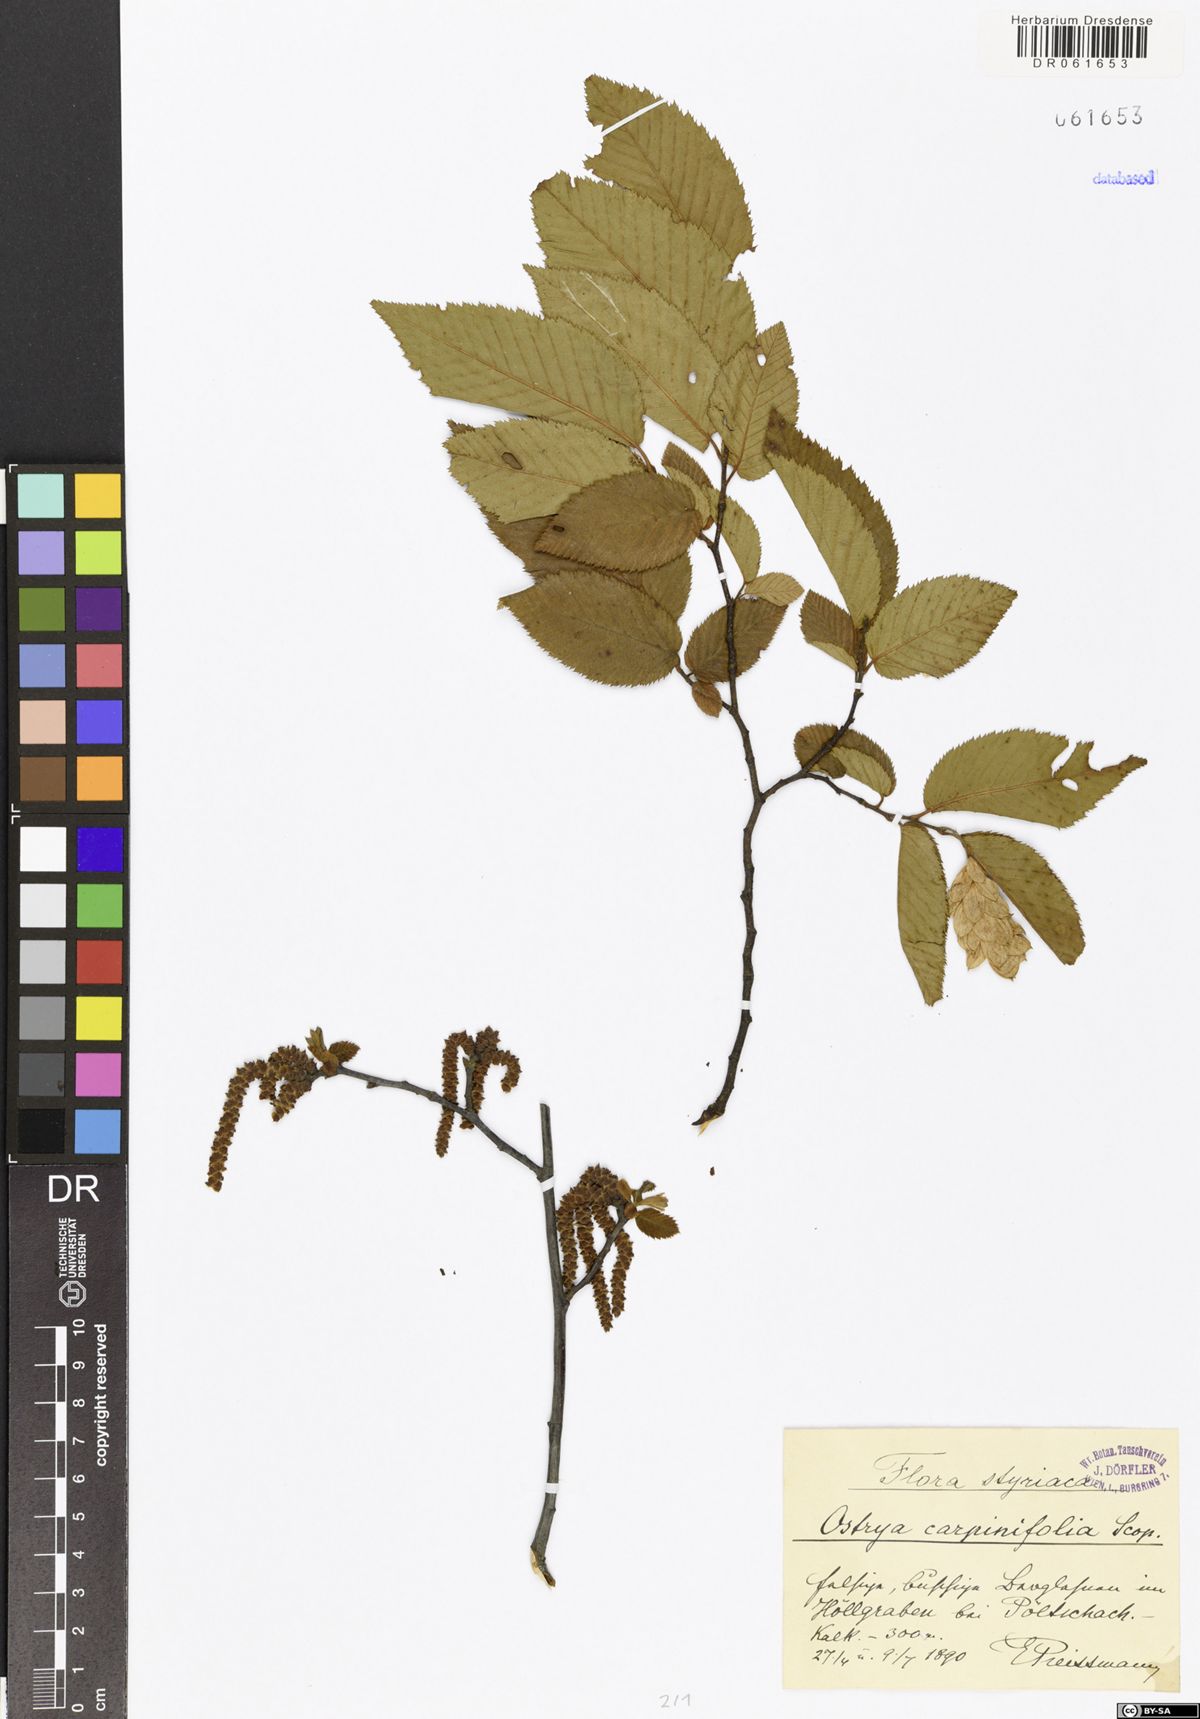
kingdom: Plantae
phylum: Tracheophyta
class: Magnoliopsida
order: Fagales
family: Betulaceae
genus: Ostrya
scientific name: Ostrya carpinifolia
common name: European hop-hornbeam
